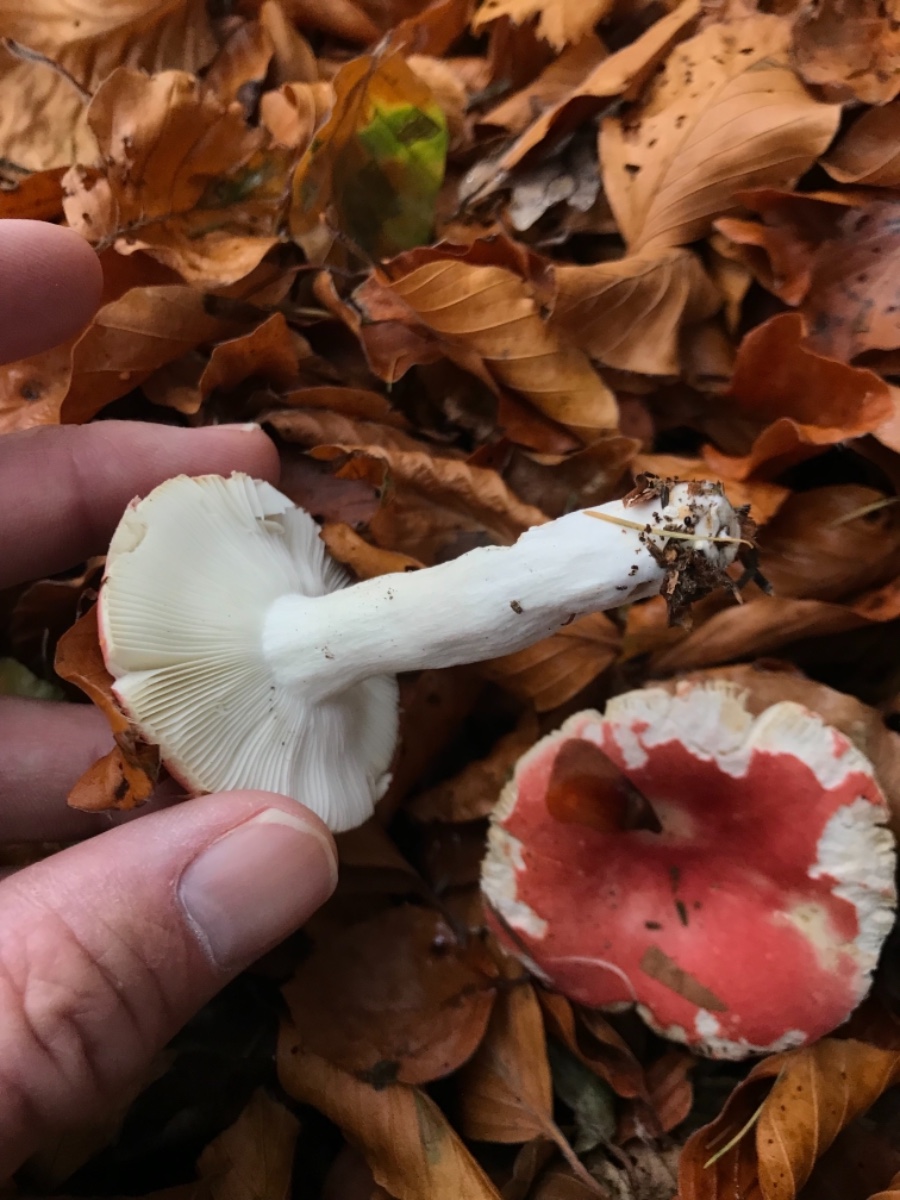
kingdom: Fungi
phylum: Basidiomycota
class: Agaricomycetes
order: Russulales
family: Russulaceae
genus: Russula
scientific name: Russula nobilis
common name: lille gift-skørhat
